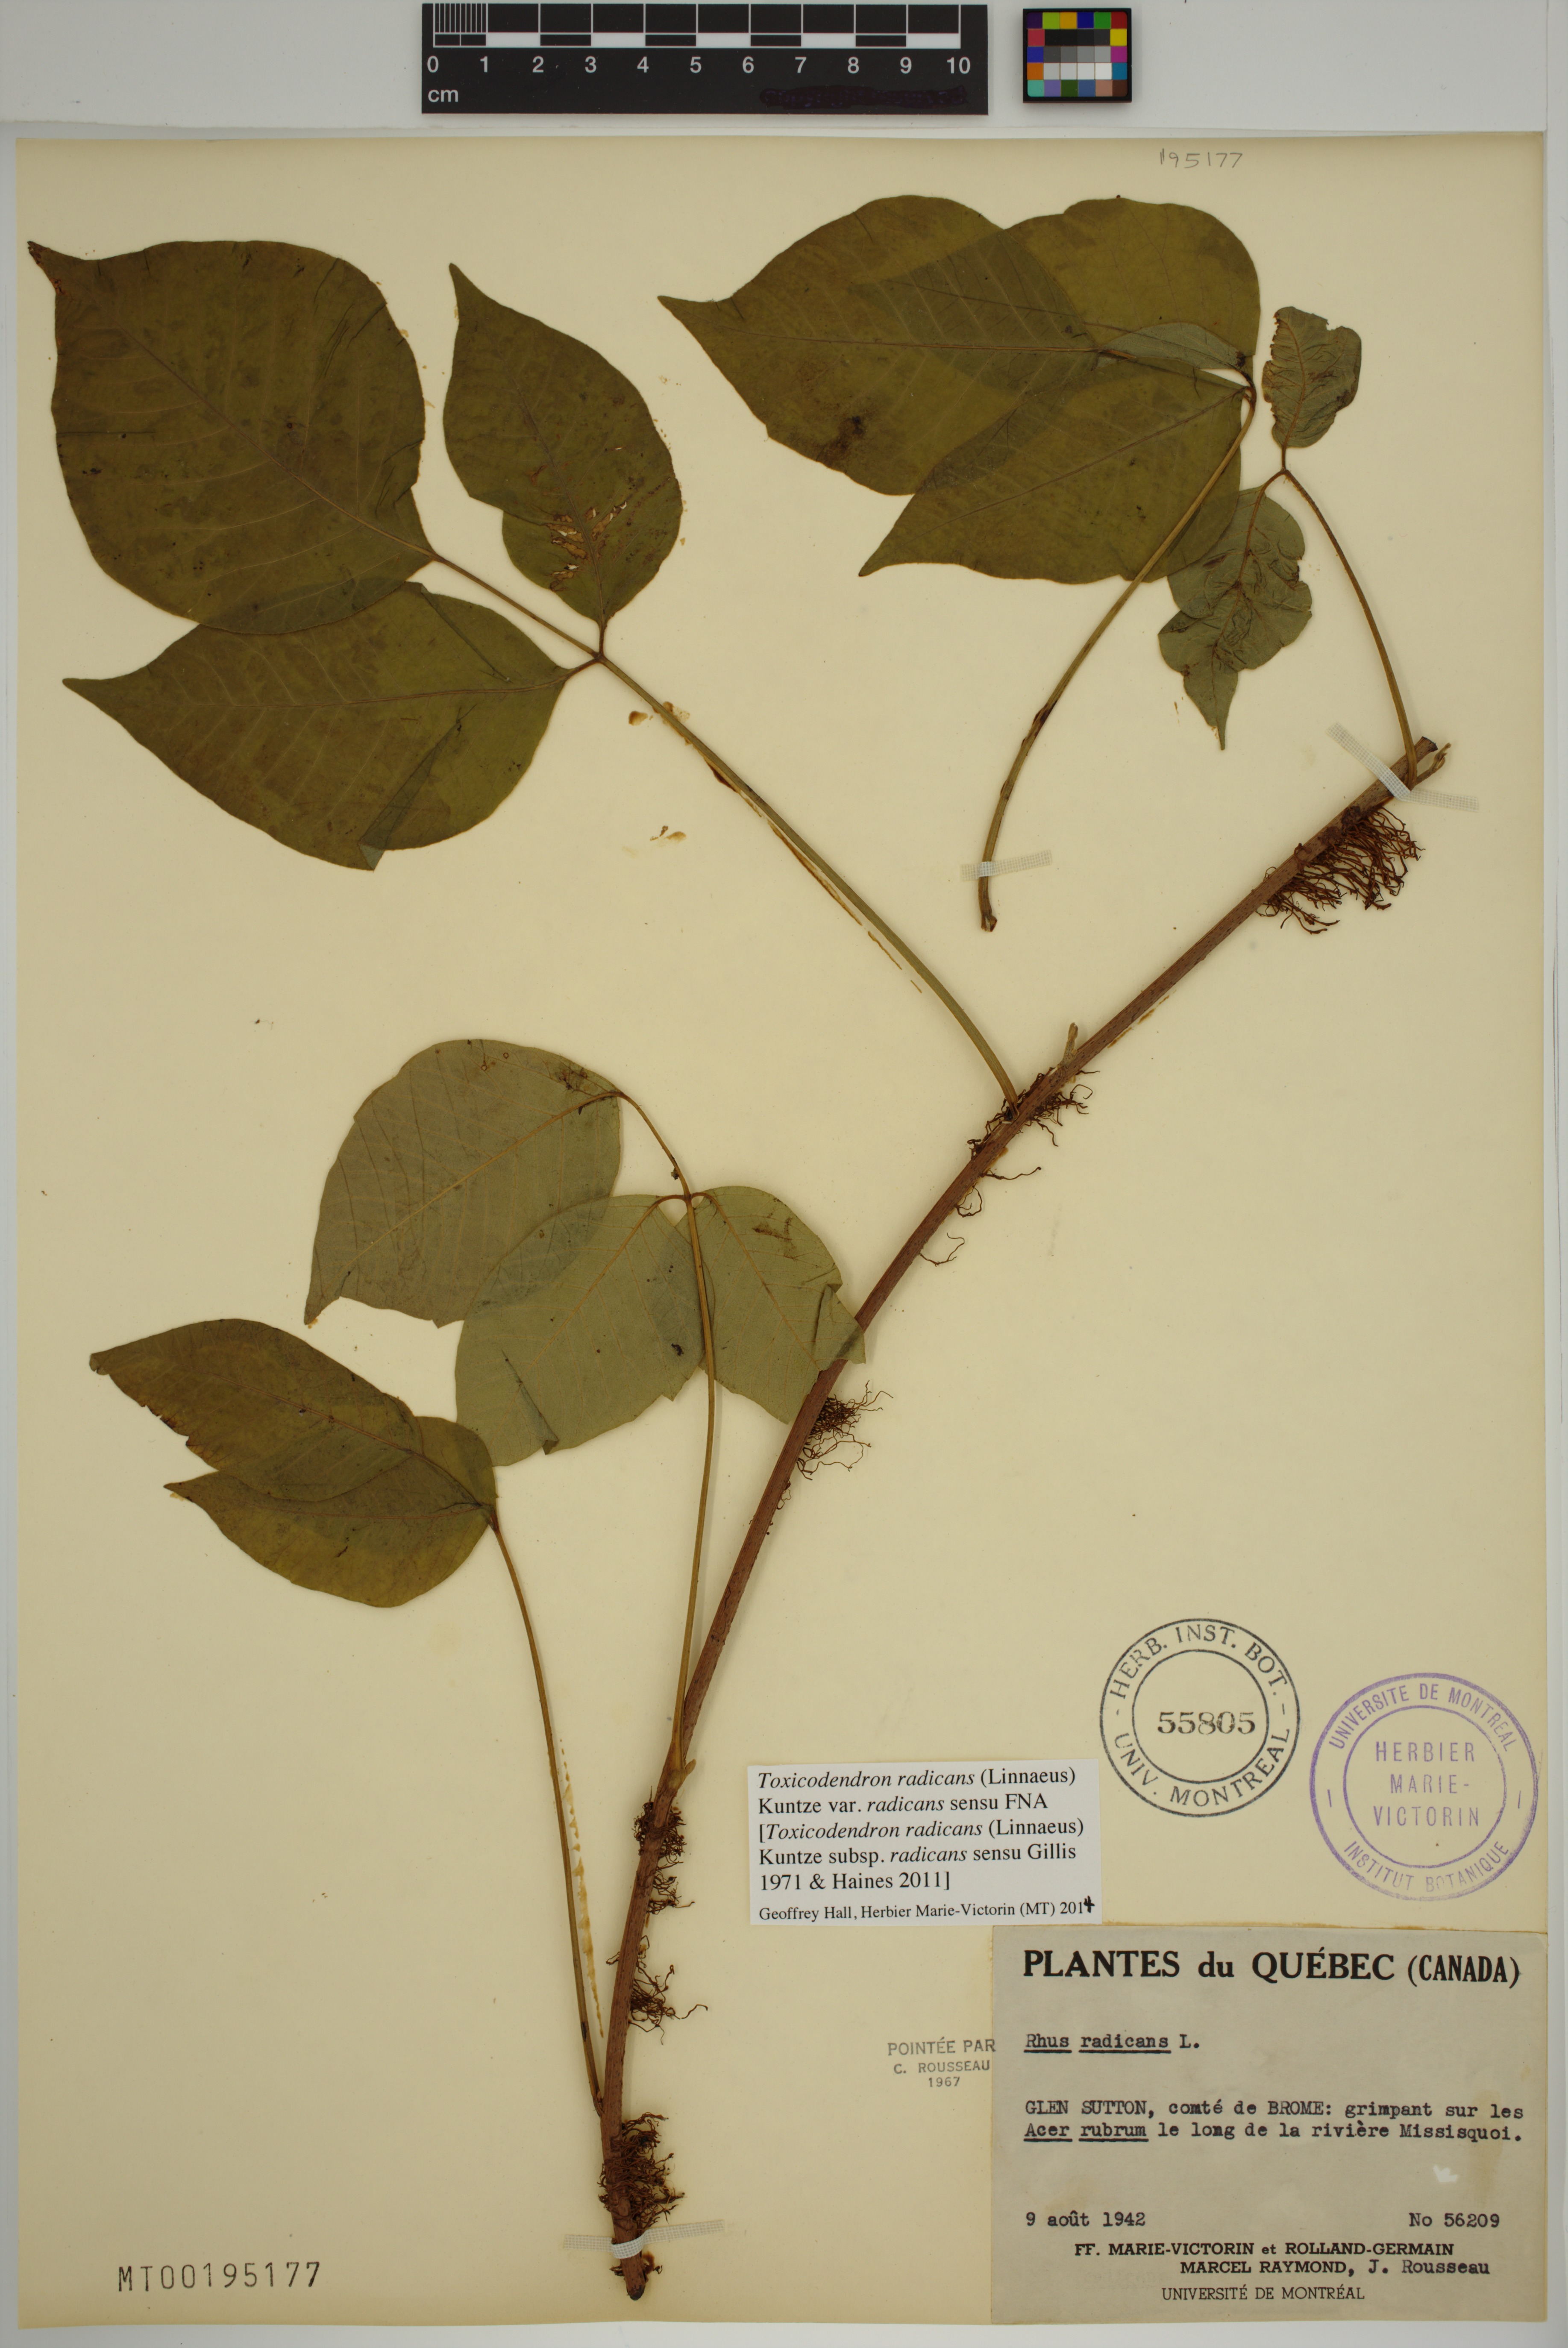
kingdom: Plantae
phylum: Tracheophyta
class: Magnoliopsida
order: Sapindales
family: Anacardiaceae
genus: Toxicodendron
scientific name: Toxicodendron radicans
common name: Poison ivy
